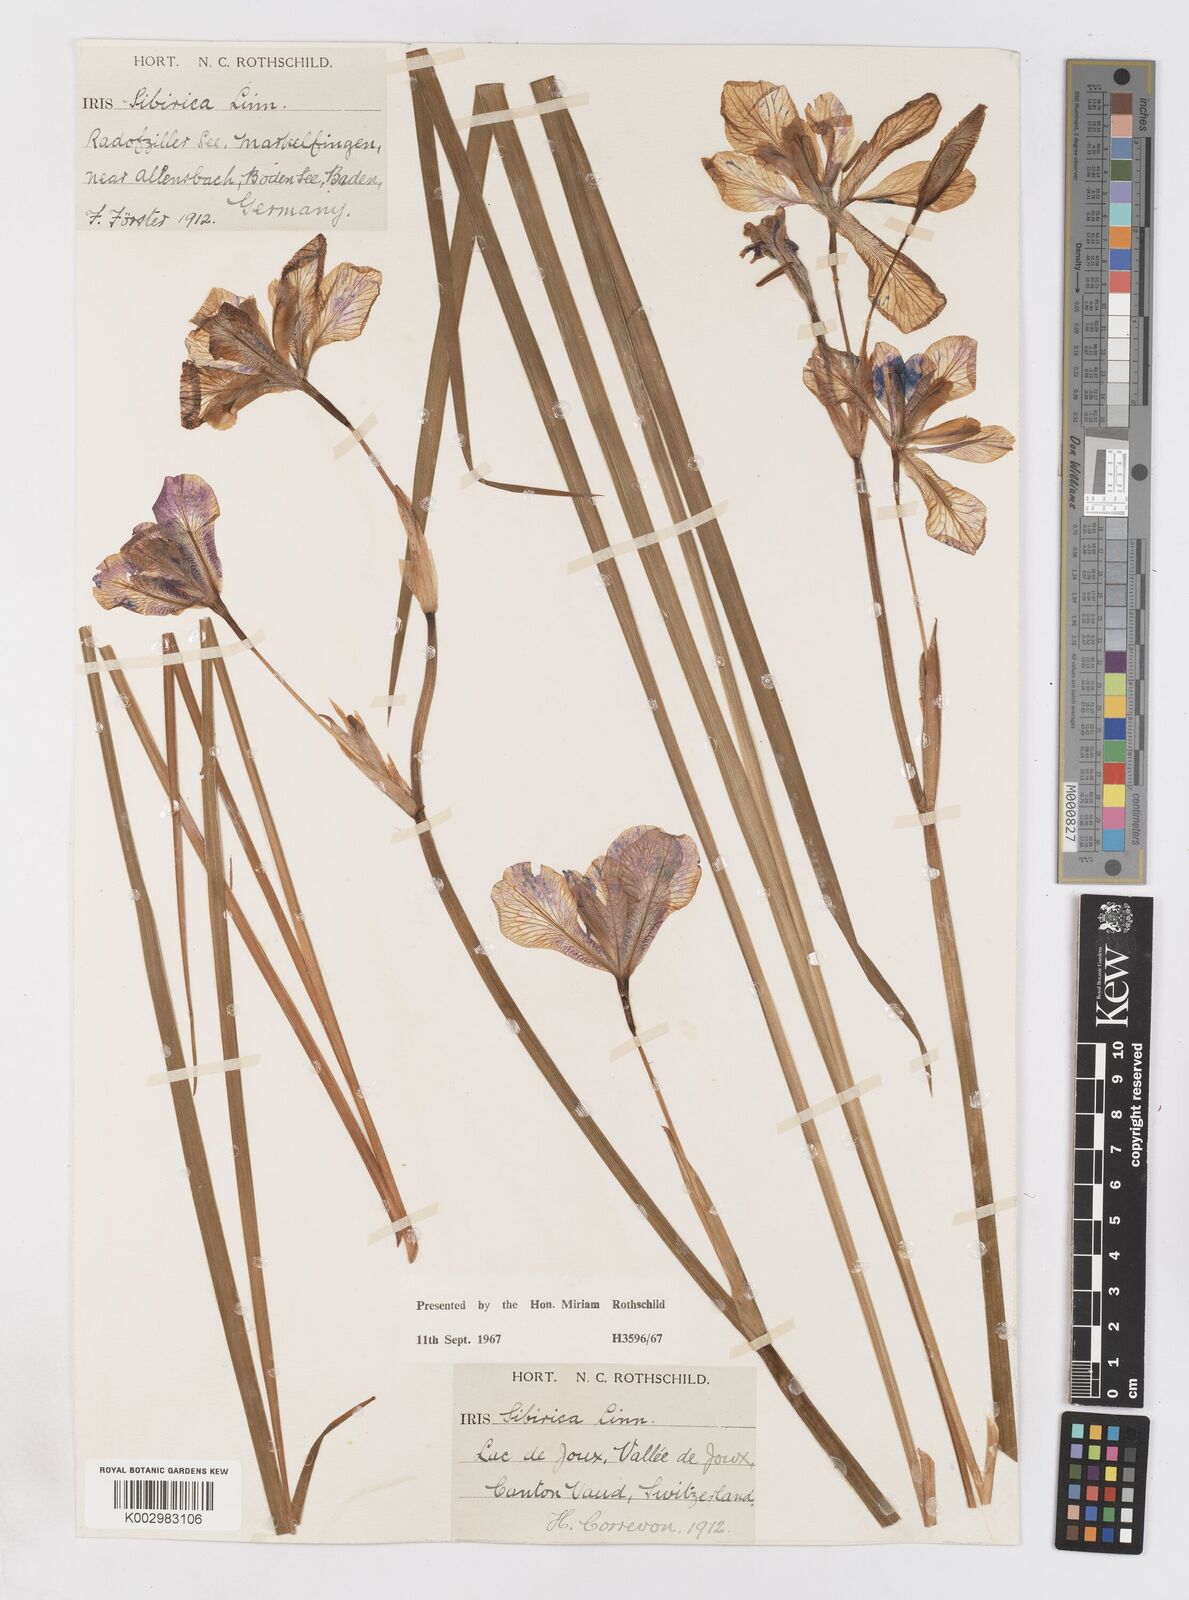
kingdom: Plantae
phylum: Tracheophyta
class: Liliopsida
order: Asparagales
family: Iridaceae
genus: Iris
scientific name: Iris sibirica
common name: Siberian iris
